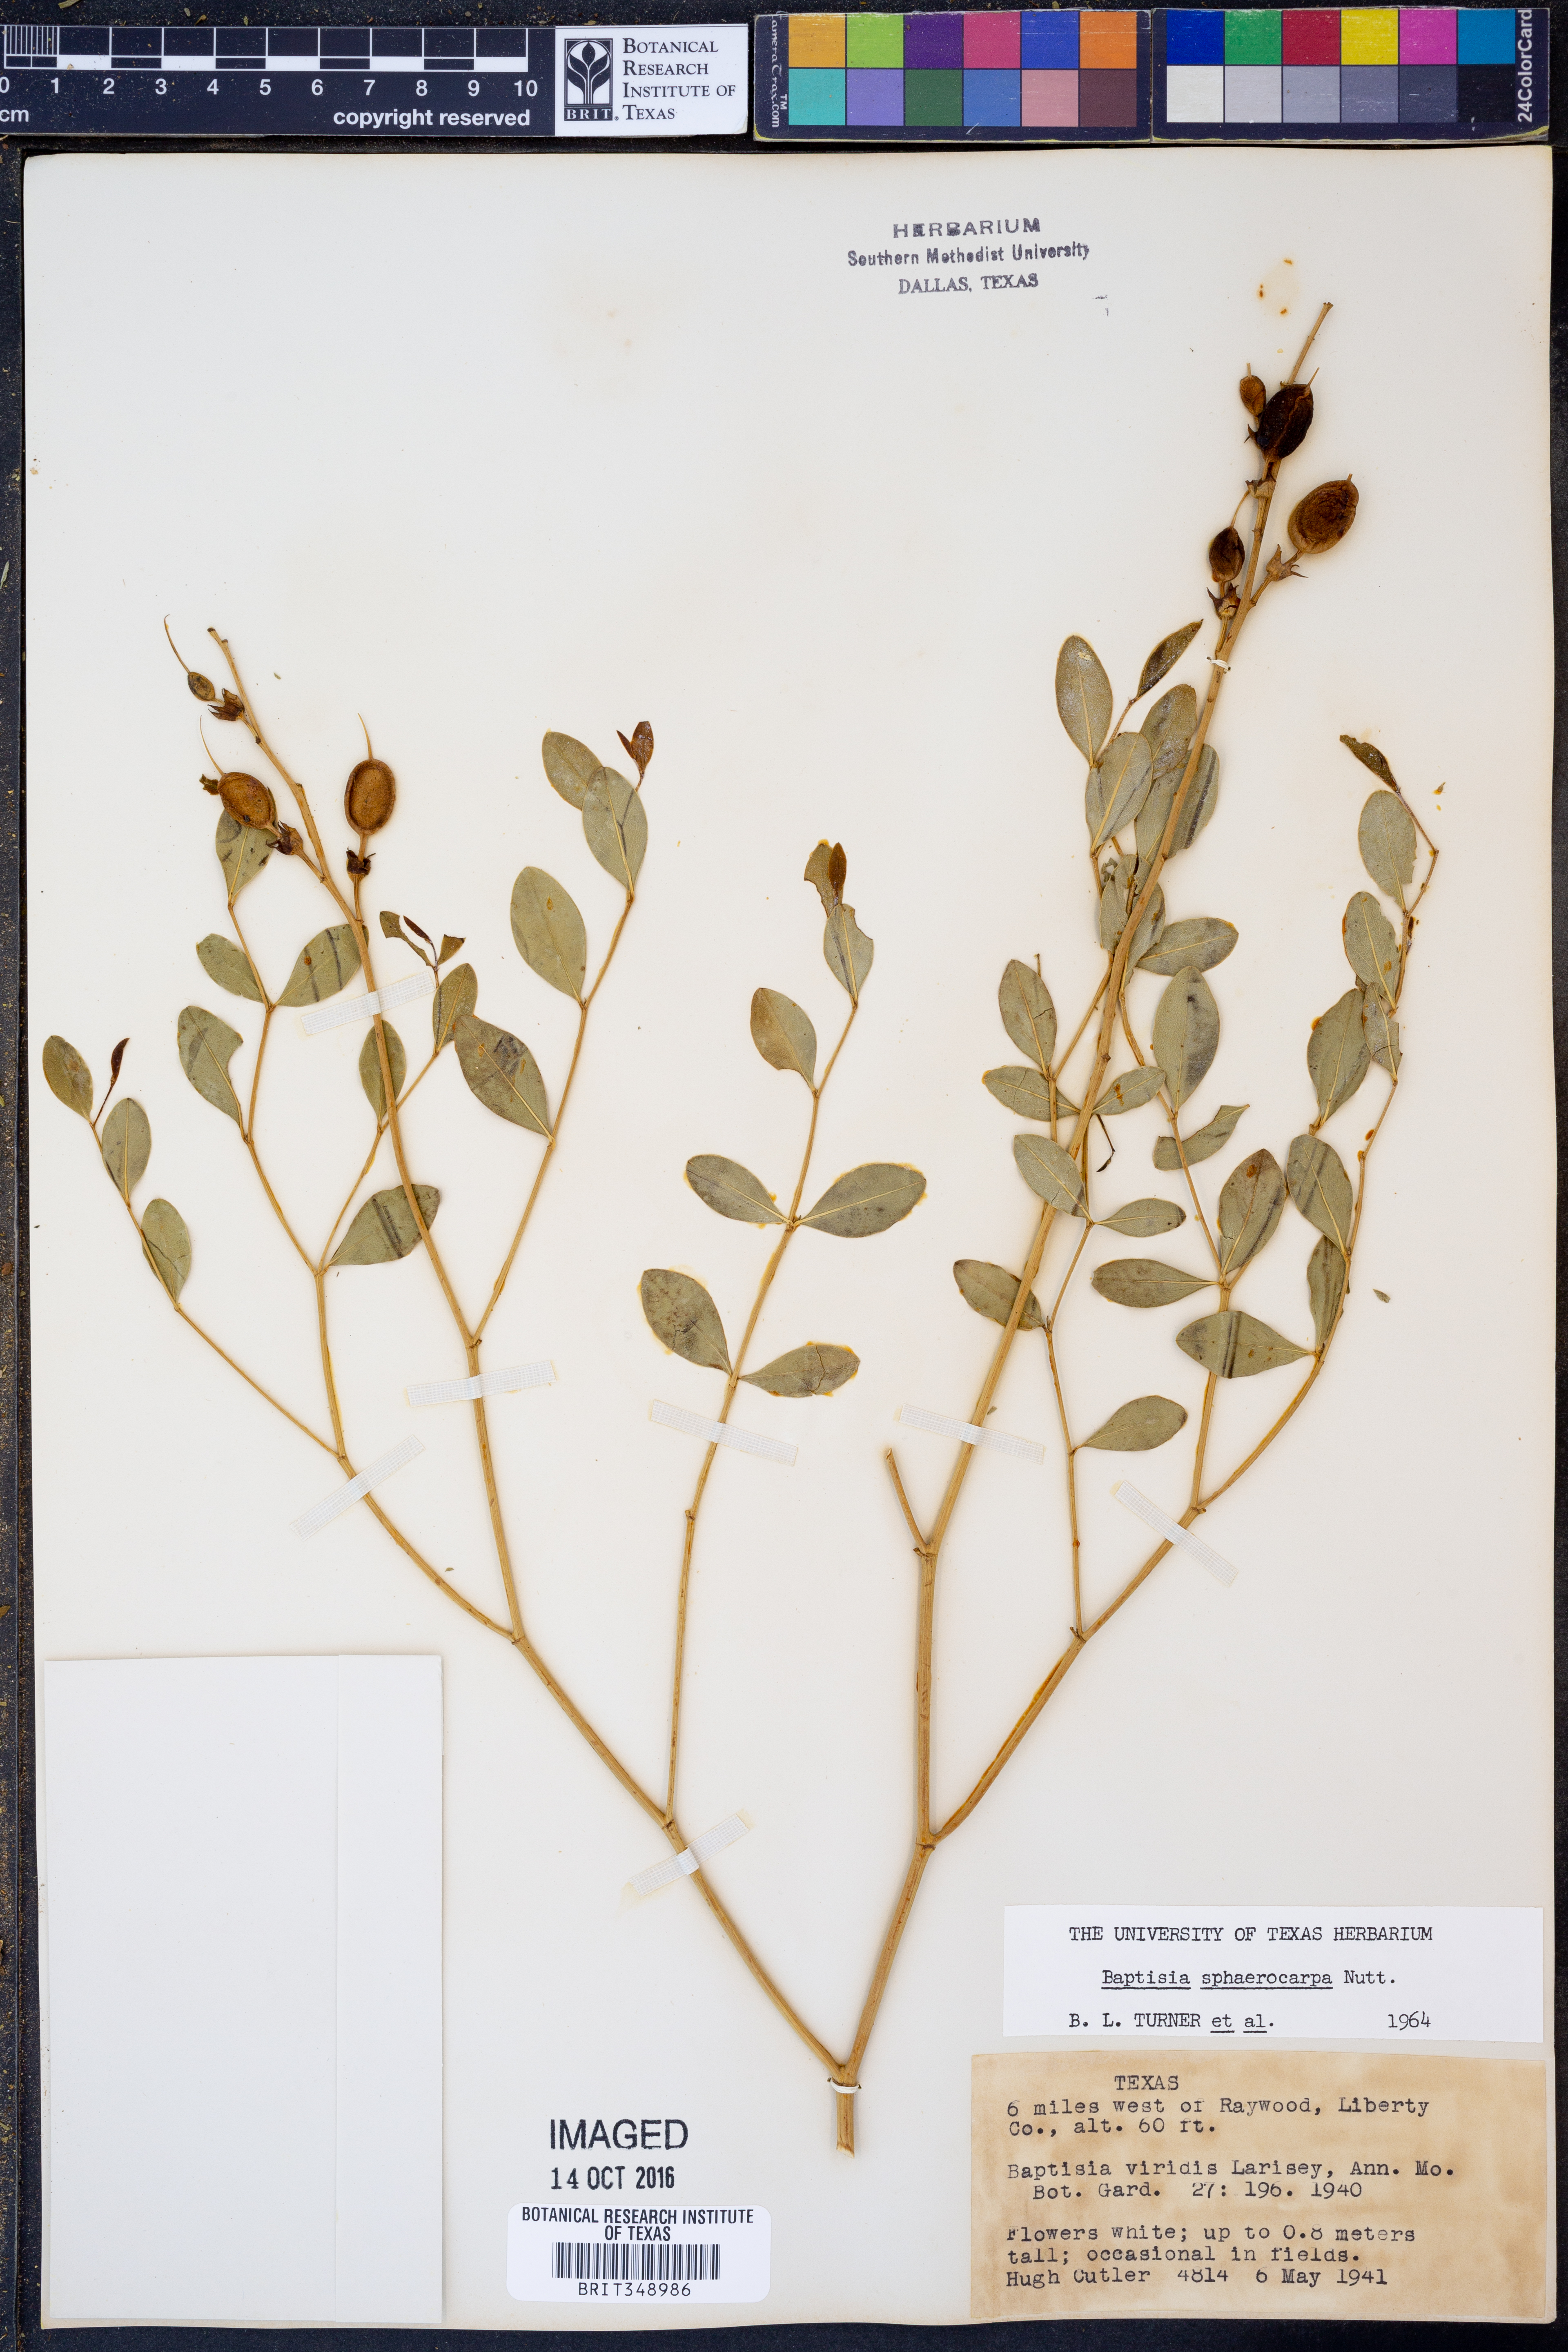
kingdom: Plantae
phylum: Tracheophyta
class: Magnoliopsida
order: Fabales
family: Fabaceae
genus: Baptisia
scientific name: Baptisia sphaerocarpa
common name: Round wild indigo
